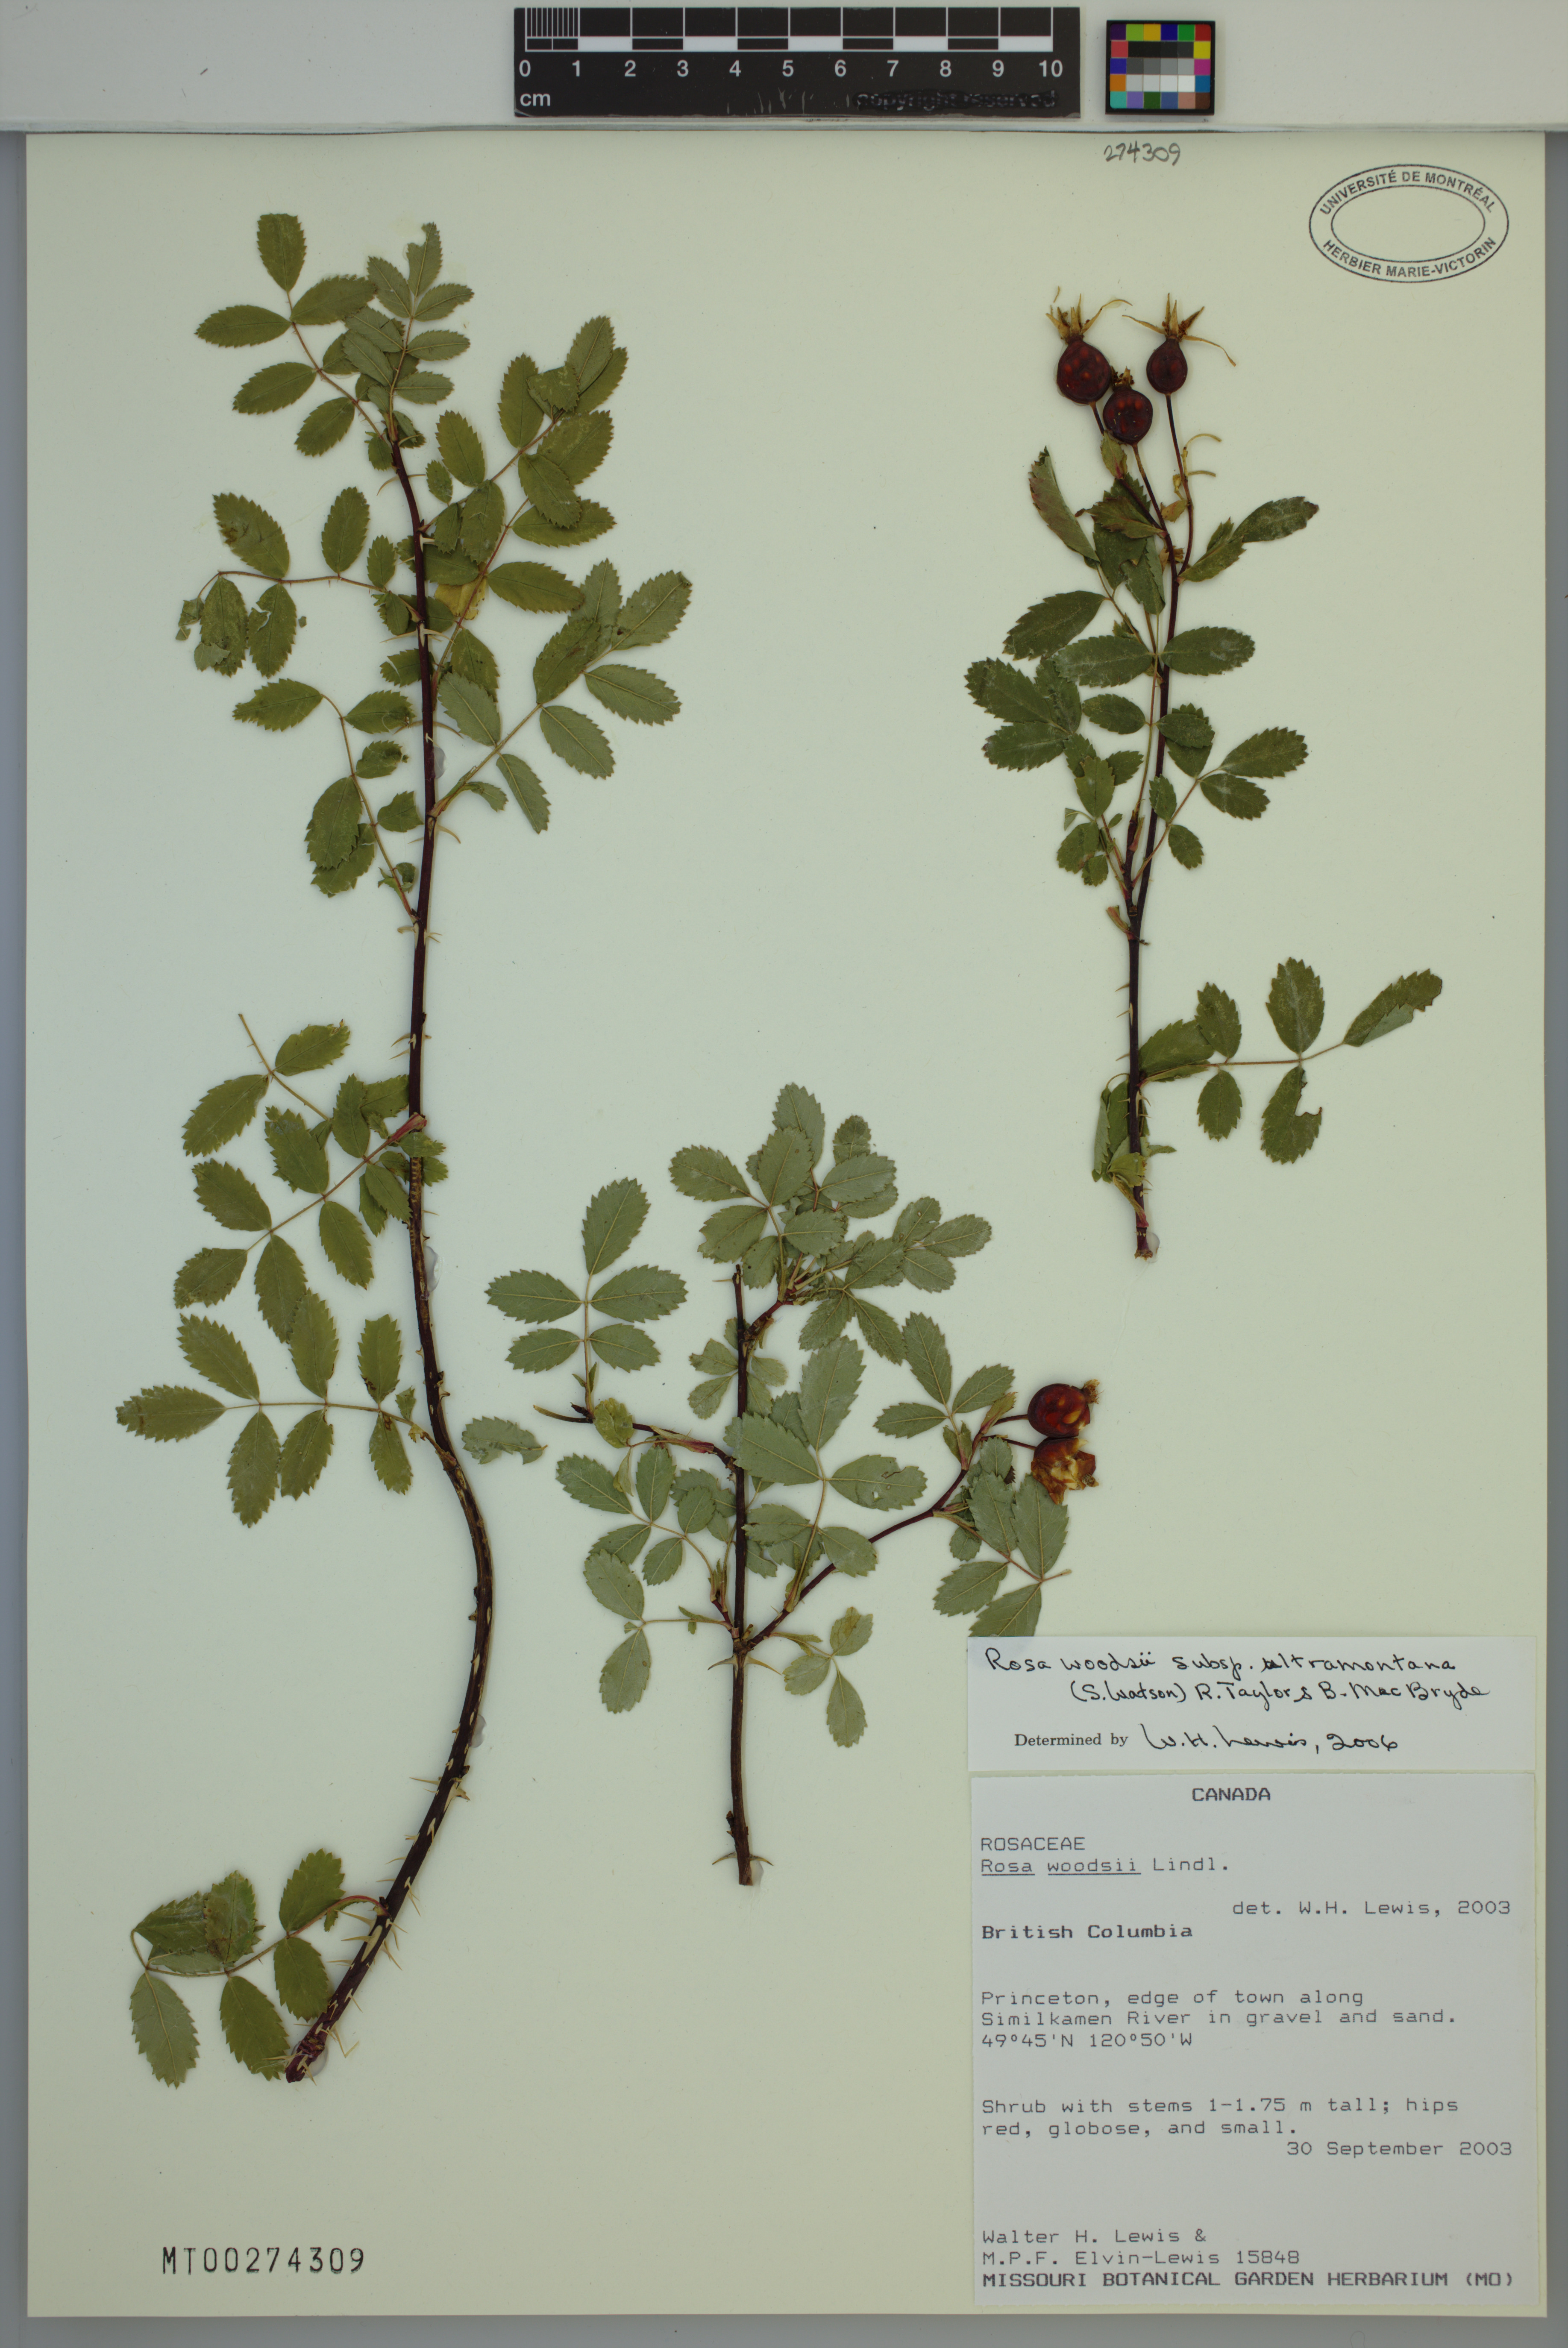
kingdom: Plantae
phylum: Tracheophyta
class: Magnoliopsida
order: Rosales
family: Rosaceae
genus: Rosa
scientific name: Rosa woodsii
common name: Woods's rose
